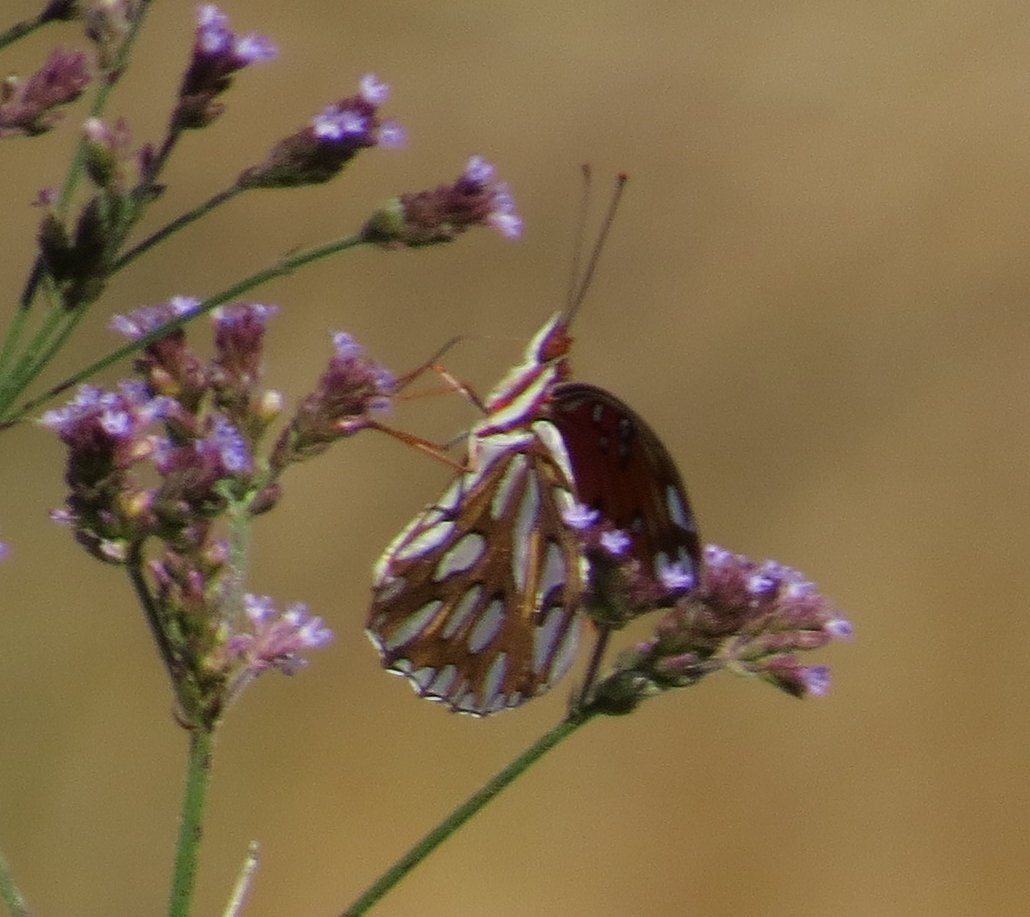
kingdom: Animalia
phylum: Arthropoda
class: Insecta
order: Lepidoptera
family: Nymphalidae
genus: Dione
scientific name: Dione vanillae
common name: Gulf Fritillary
